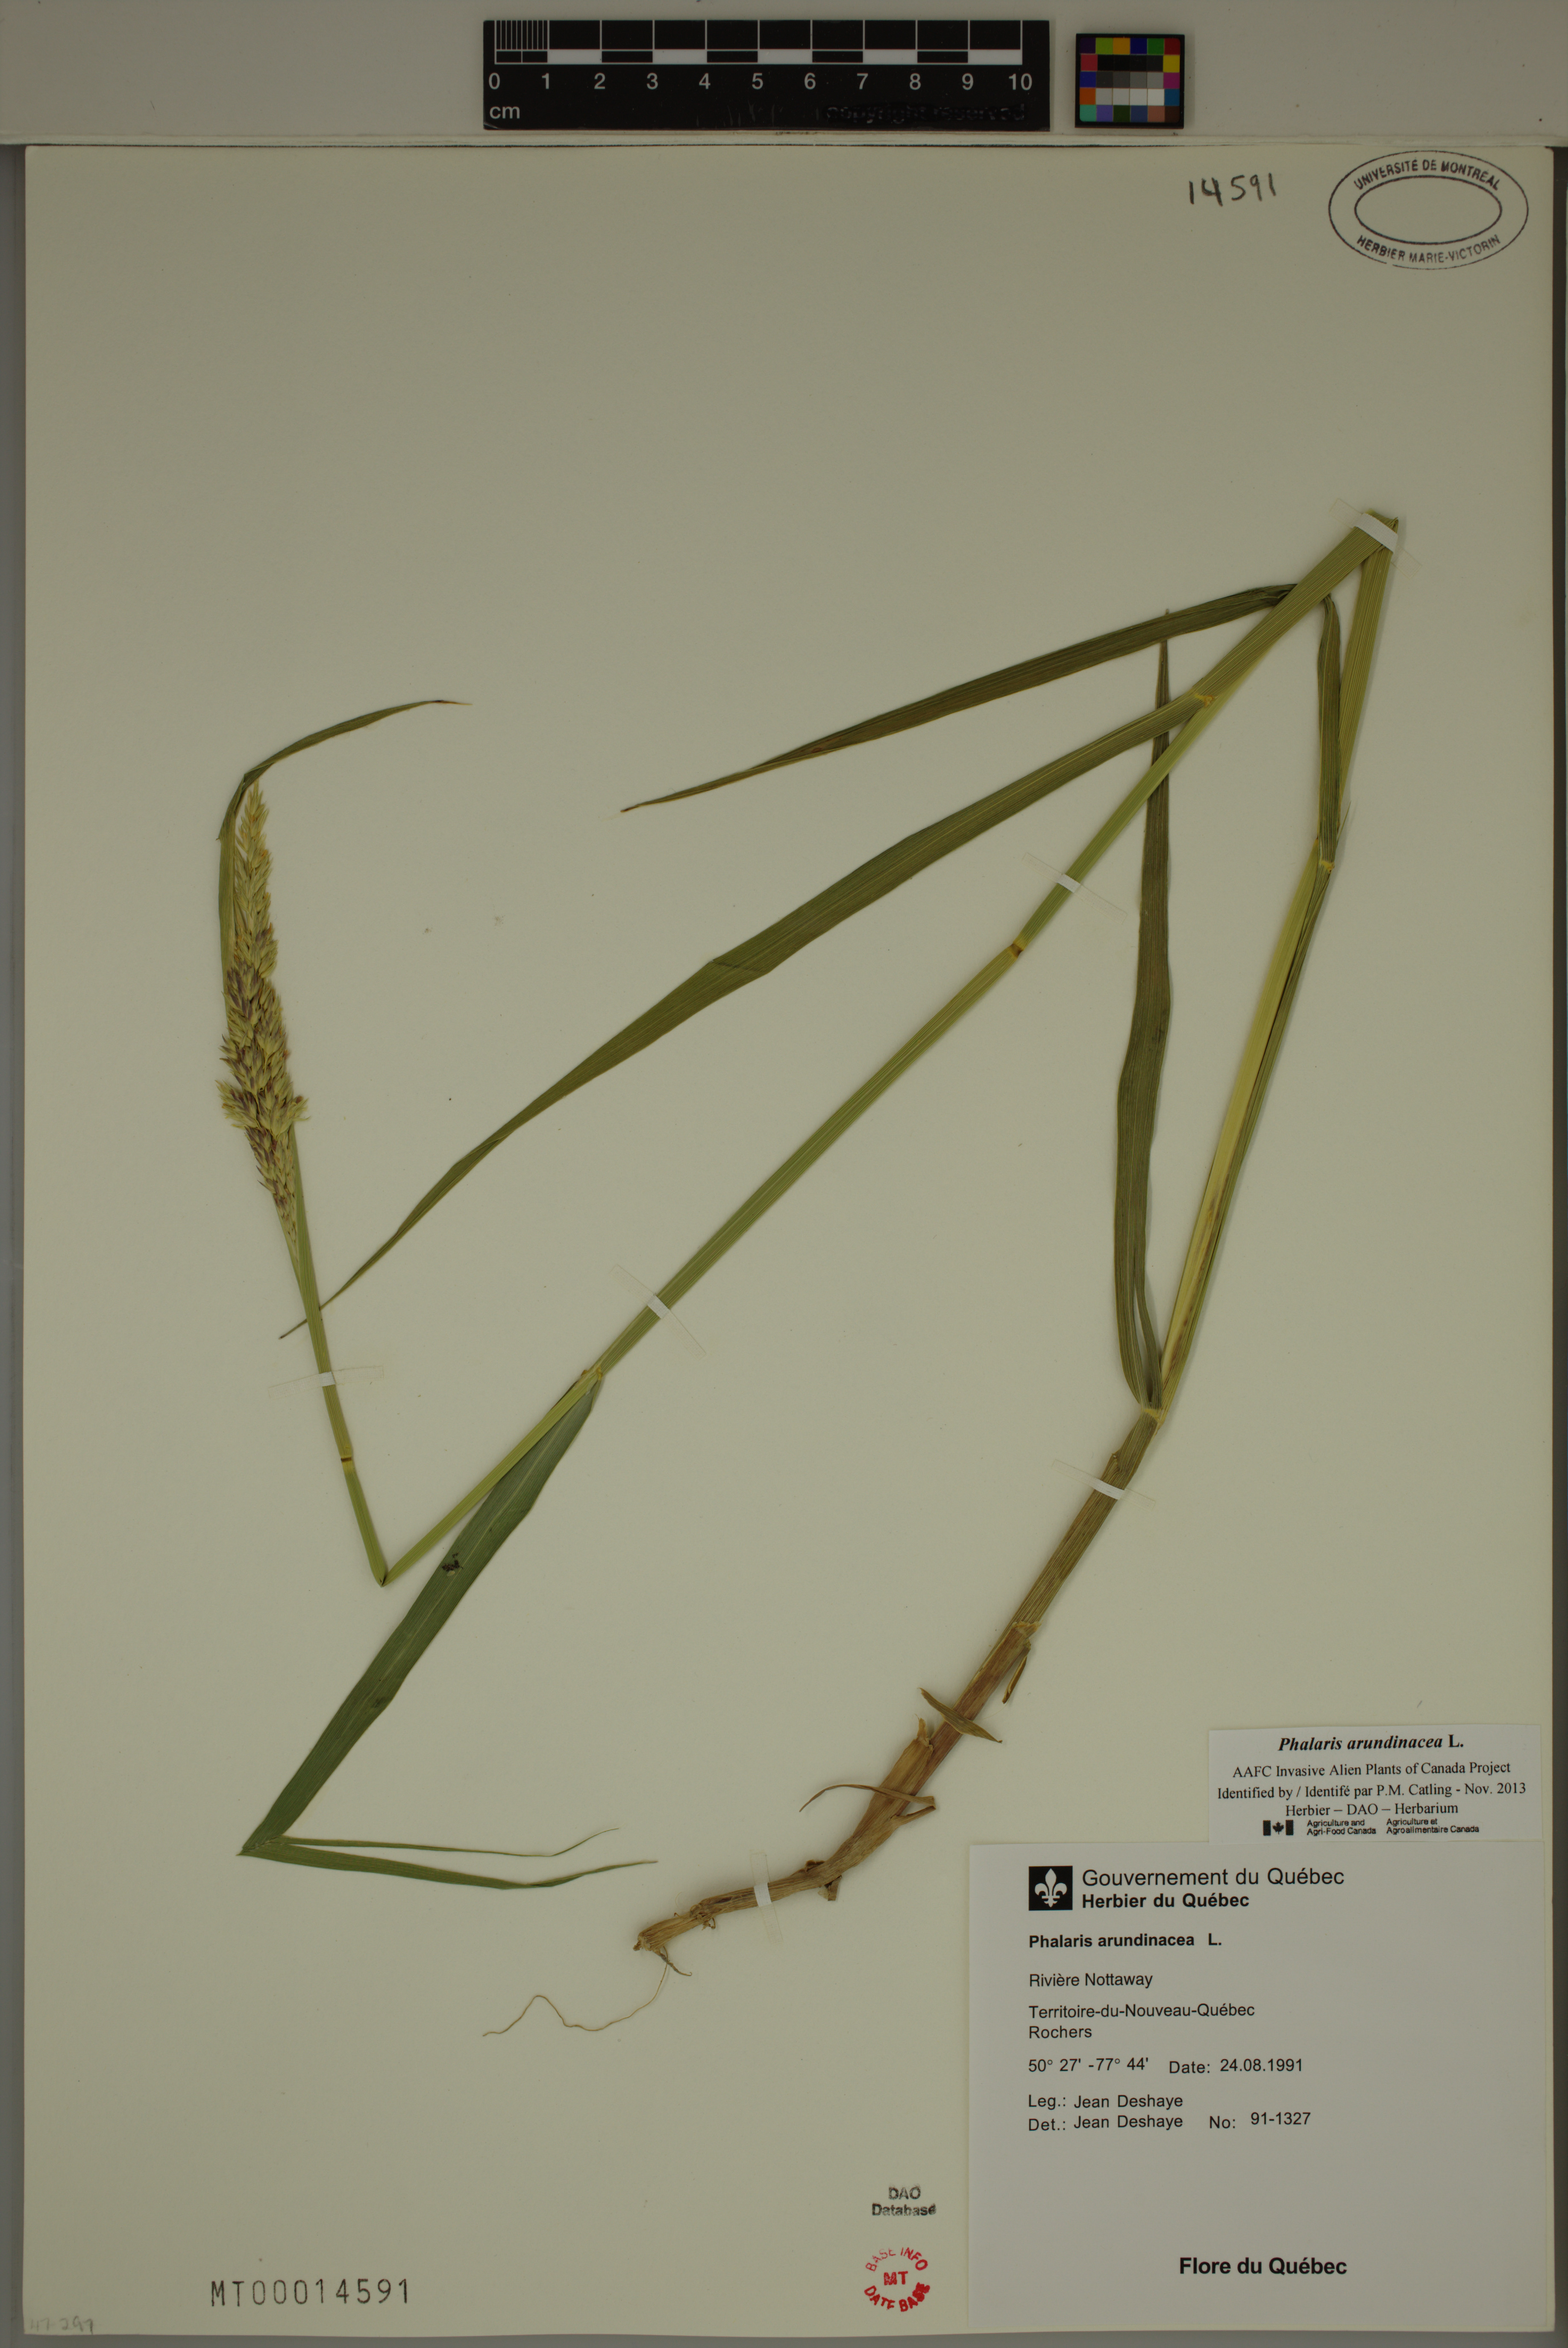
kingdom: Plantae
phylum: Tracheophyta
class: Liliopsida
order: Poales
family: Poaceae
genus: Phalaris
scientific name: Phalaris arundinacea
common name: Reed canary-grass
